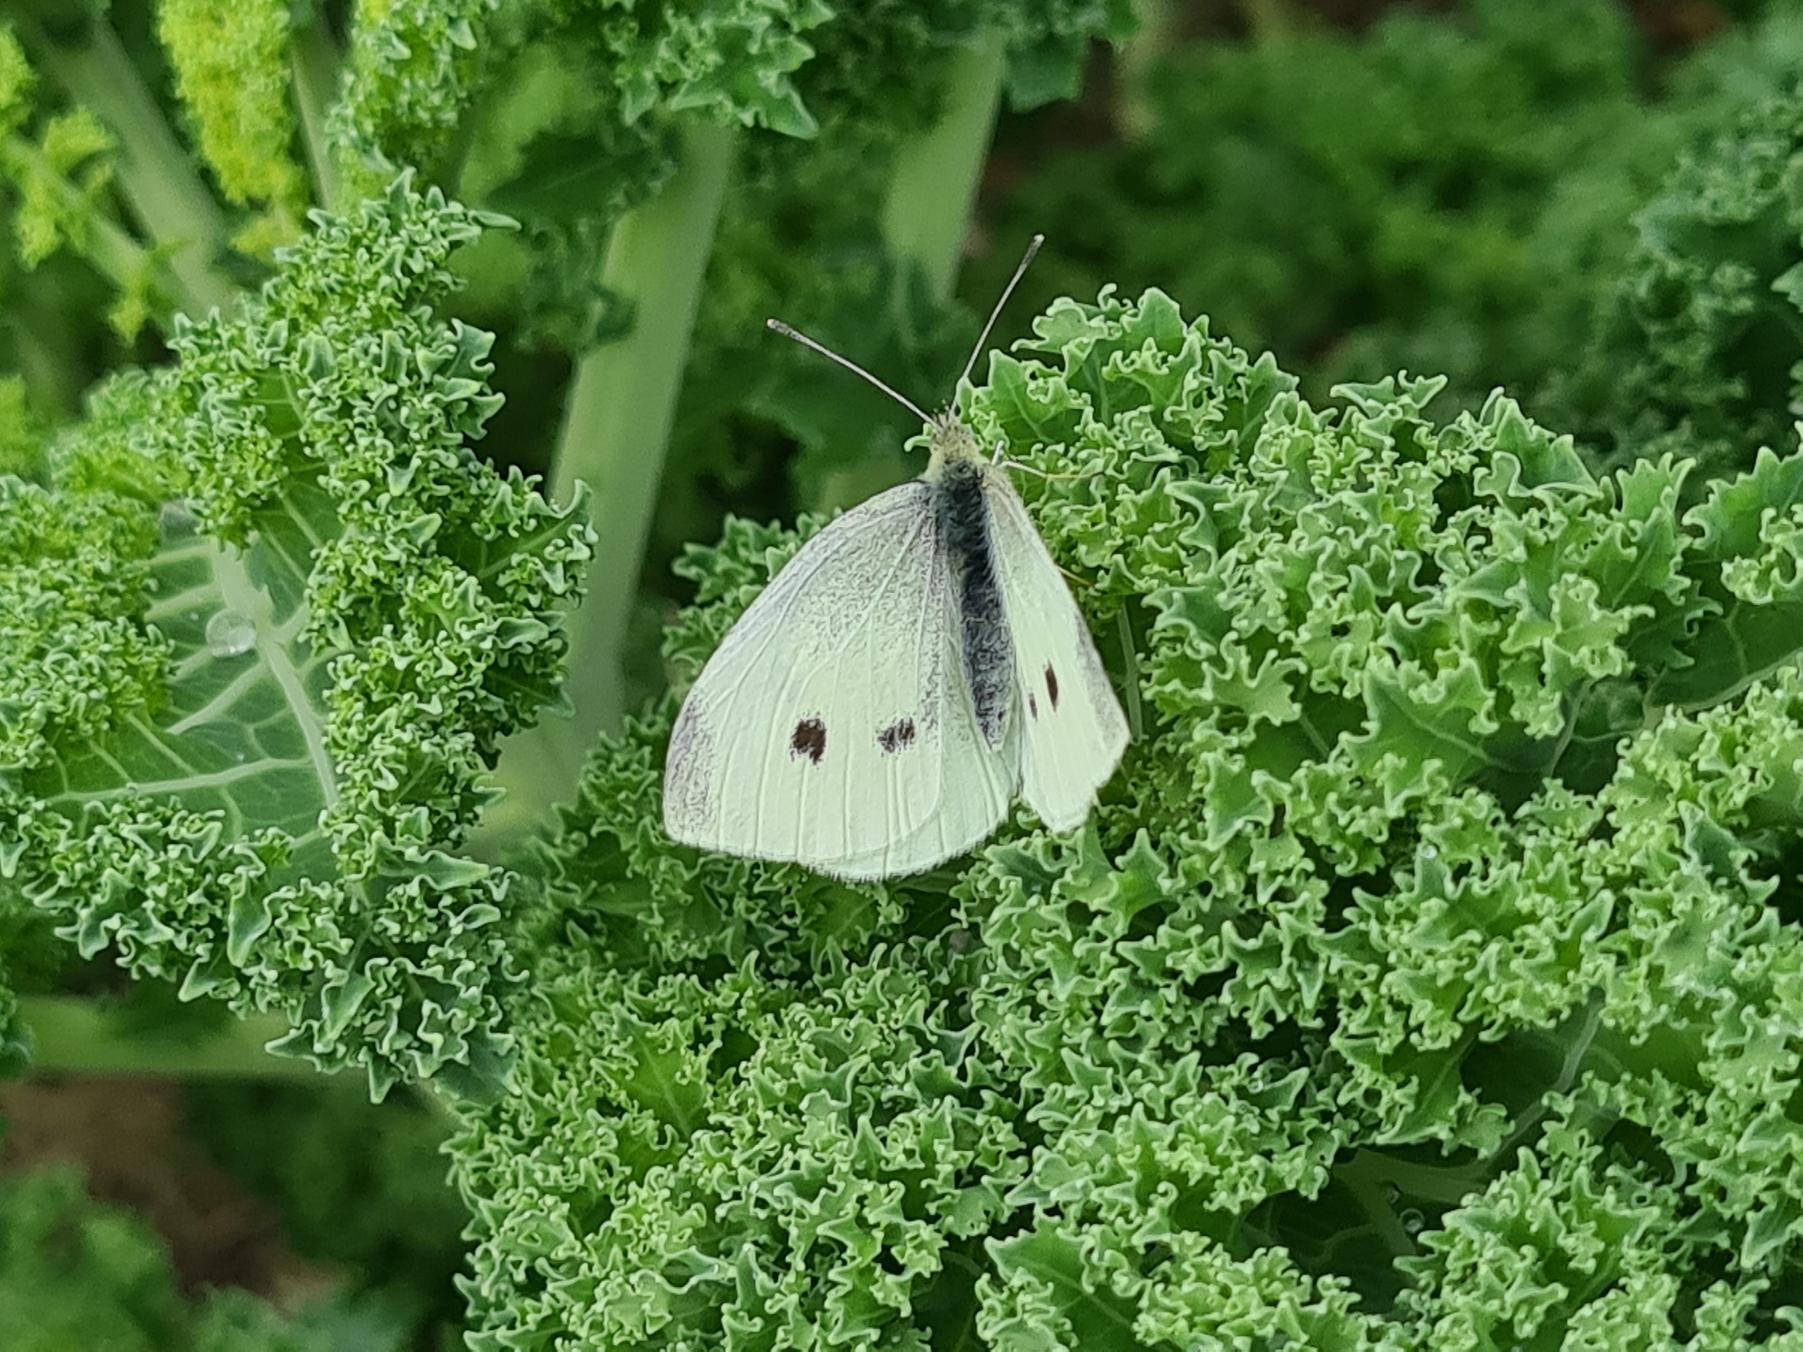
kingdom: Animalia
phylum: Arthropoda
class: Insecta
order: Lepidoptera
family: Pieridae
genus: Pieris
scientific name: Pieris rapae
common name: Lille kålsommerfugl
